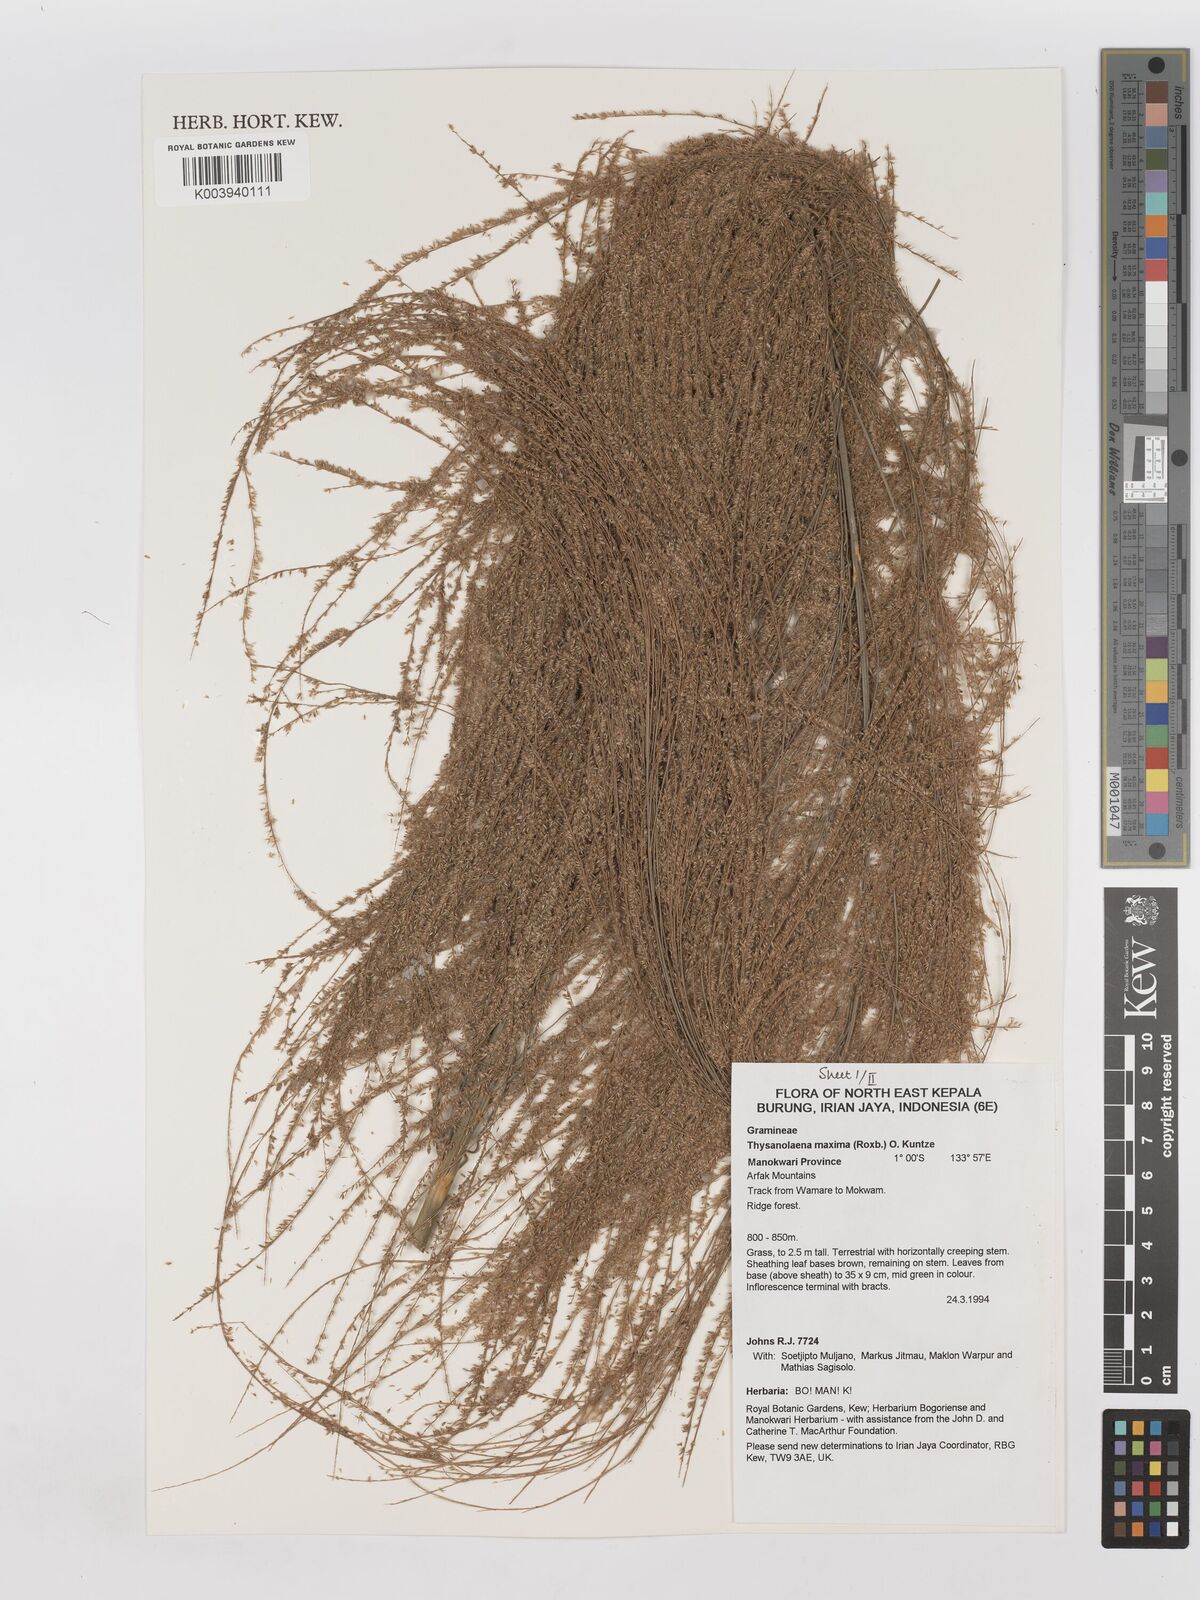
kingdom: Plantae
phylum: Tracheophyta
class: Liliopsida
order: Poales
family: Poaceae
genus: Thysanolaena
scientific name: Thysanolaena latifolia
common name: Tiger grass
